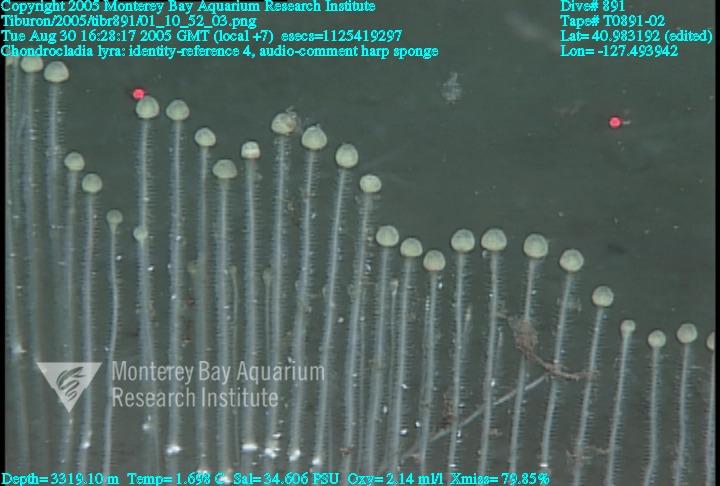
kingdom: Animalia
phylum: Porifera
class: Demospongiae
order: Poecilosclerida
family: Cladorhizidae
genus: Chondrocladia
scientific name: Chondrocladia lyra
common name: Harp sponge
